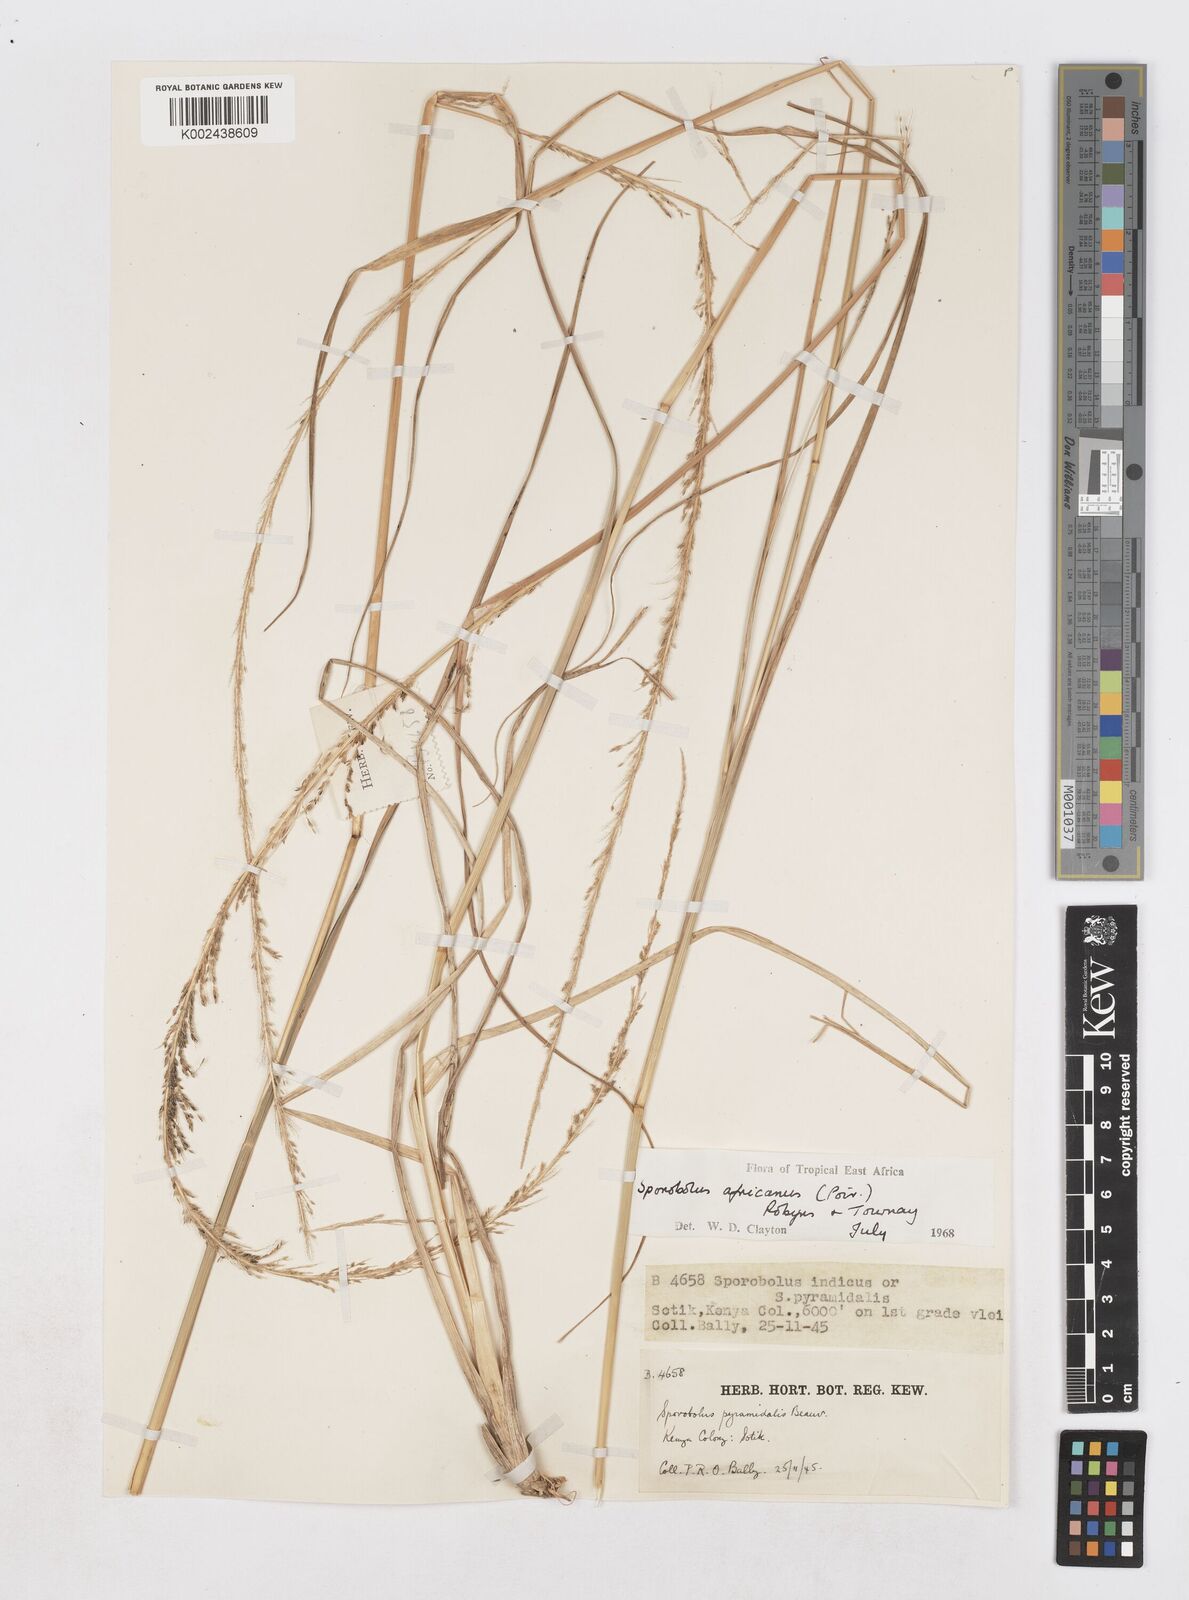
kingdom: Plantae
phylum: Tracheophyta
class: Liliopsida
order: Poales
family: Poaceae
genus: Sporobolus
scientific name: Sporobolus africanus
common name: African dropseed
